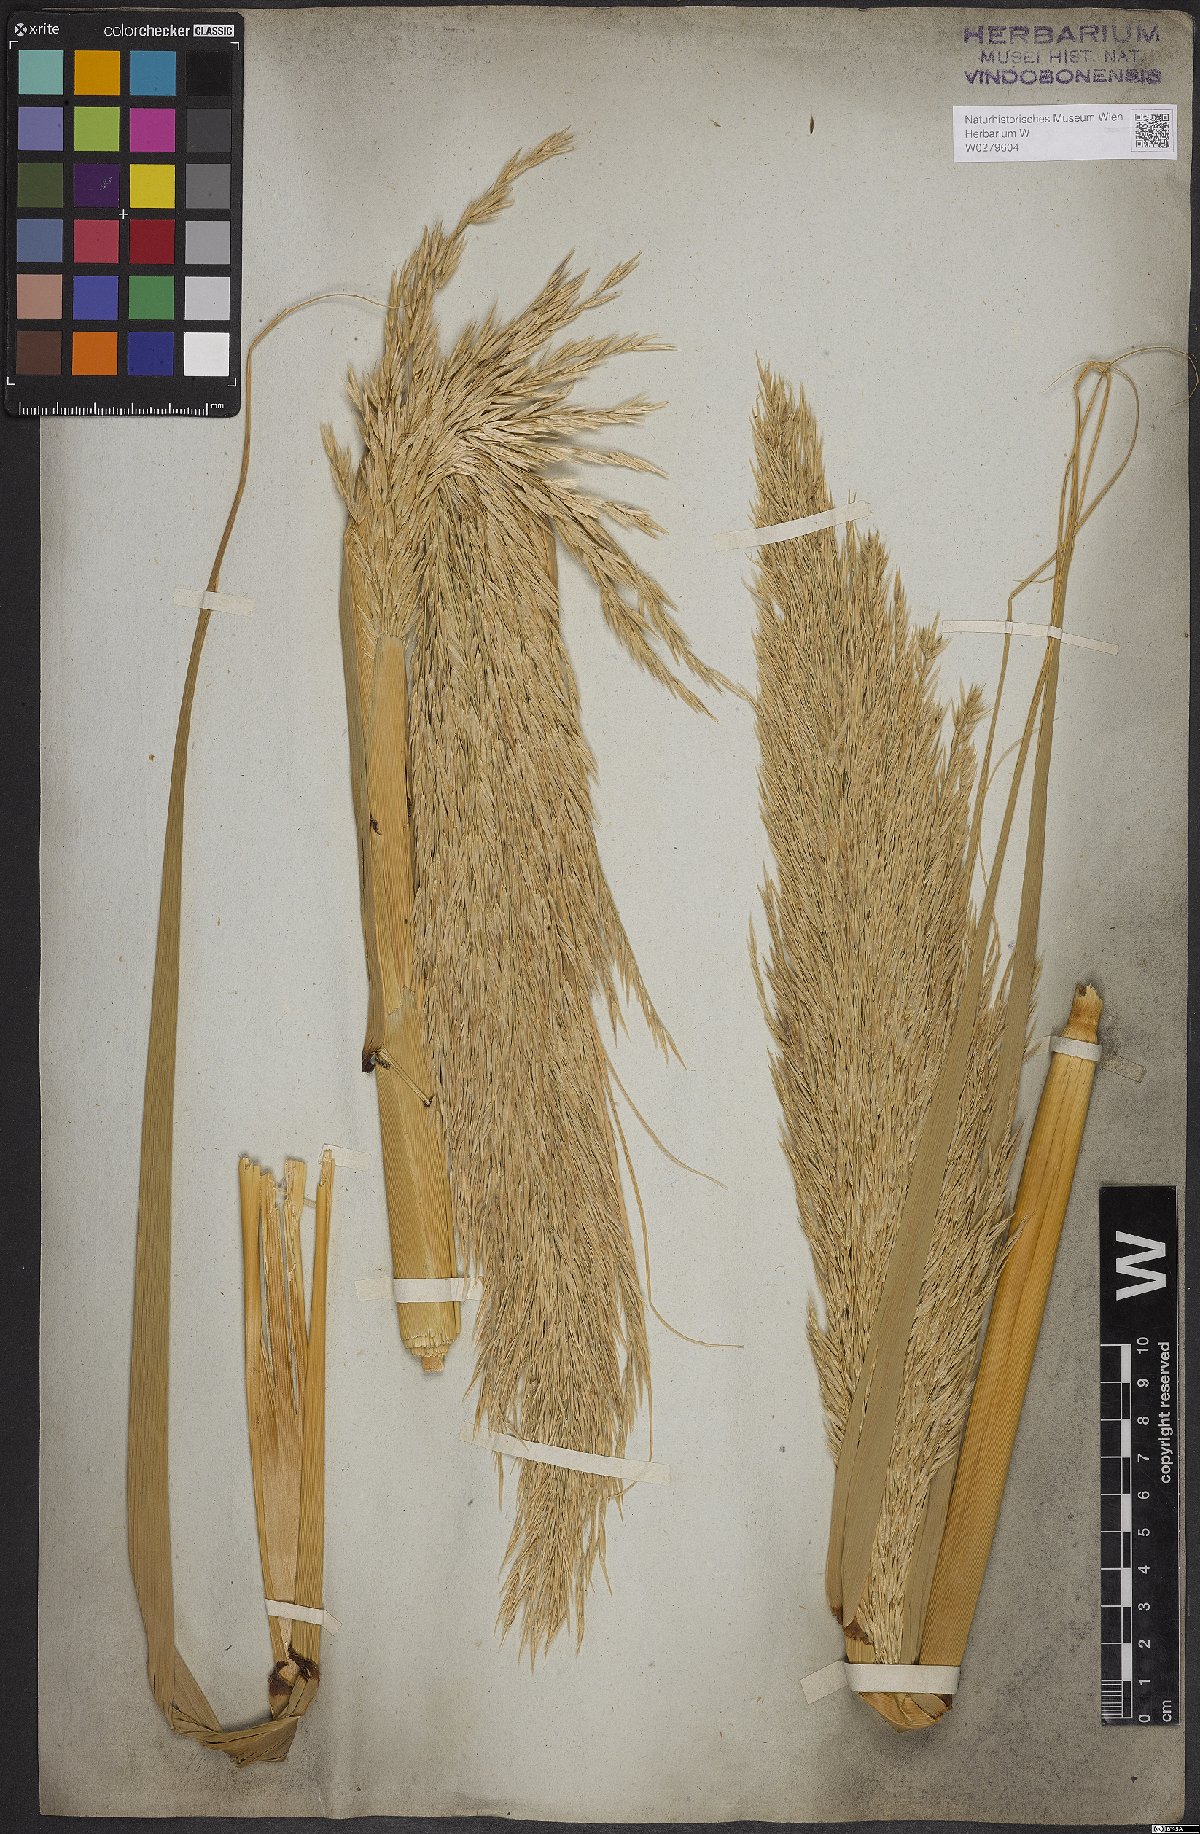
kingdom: Plantae
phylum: Tracheophyta
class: Liliopsida
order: Poales
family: Poaceae
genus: Arundo
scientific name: Arundo donax
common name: Giant reed
